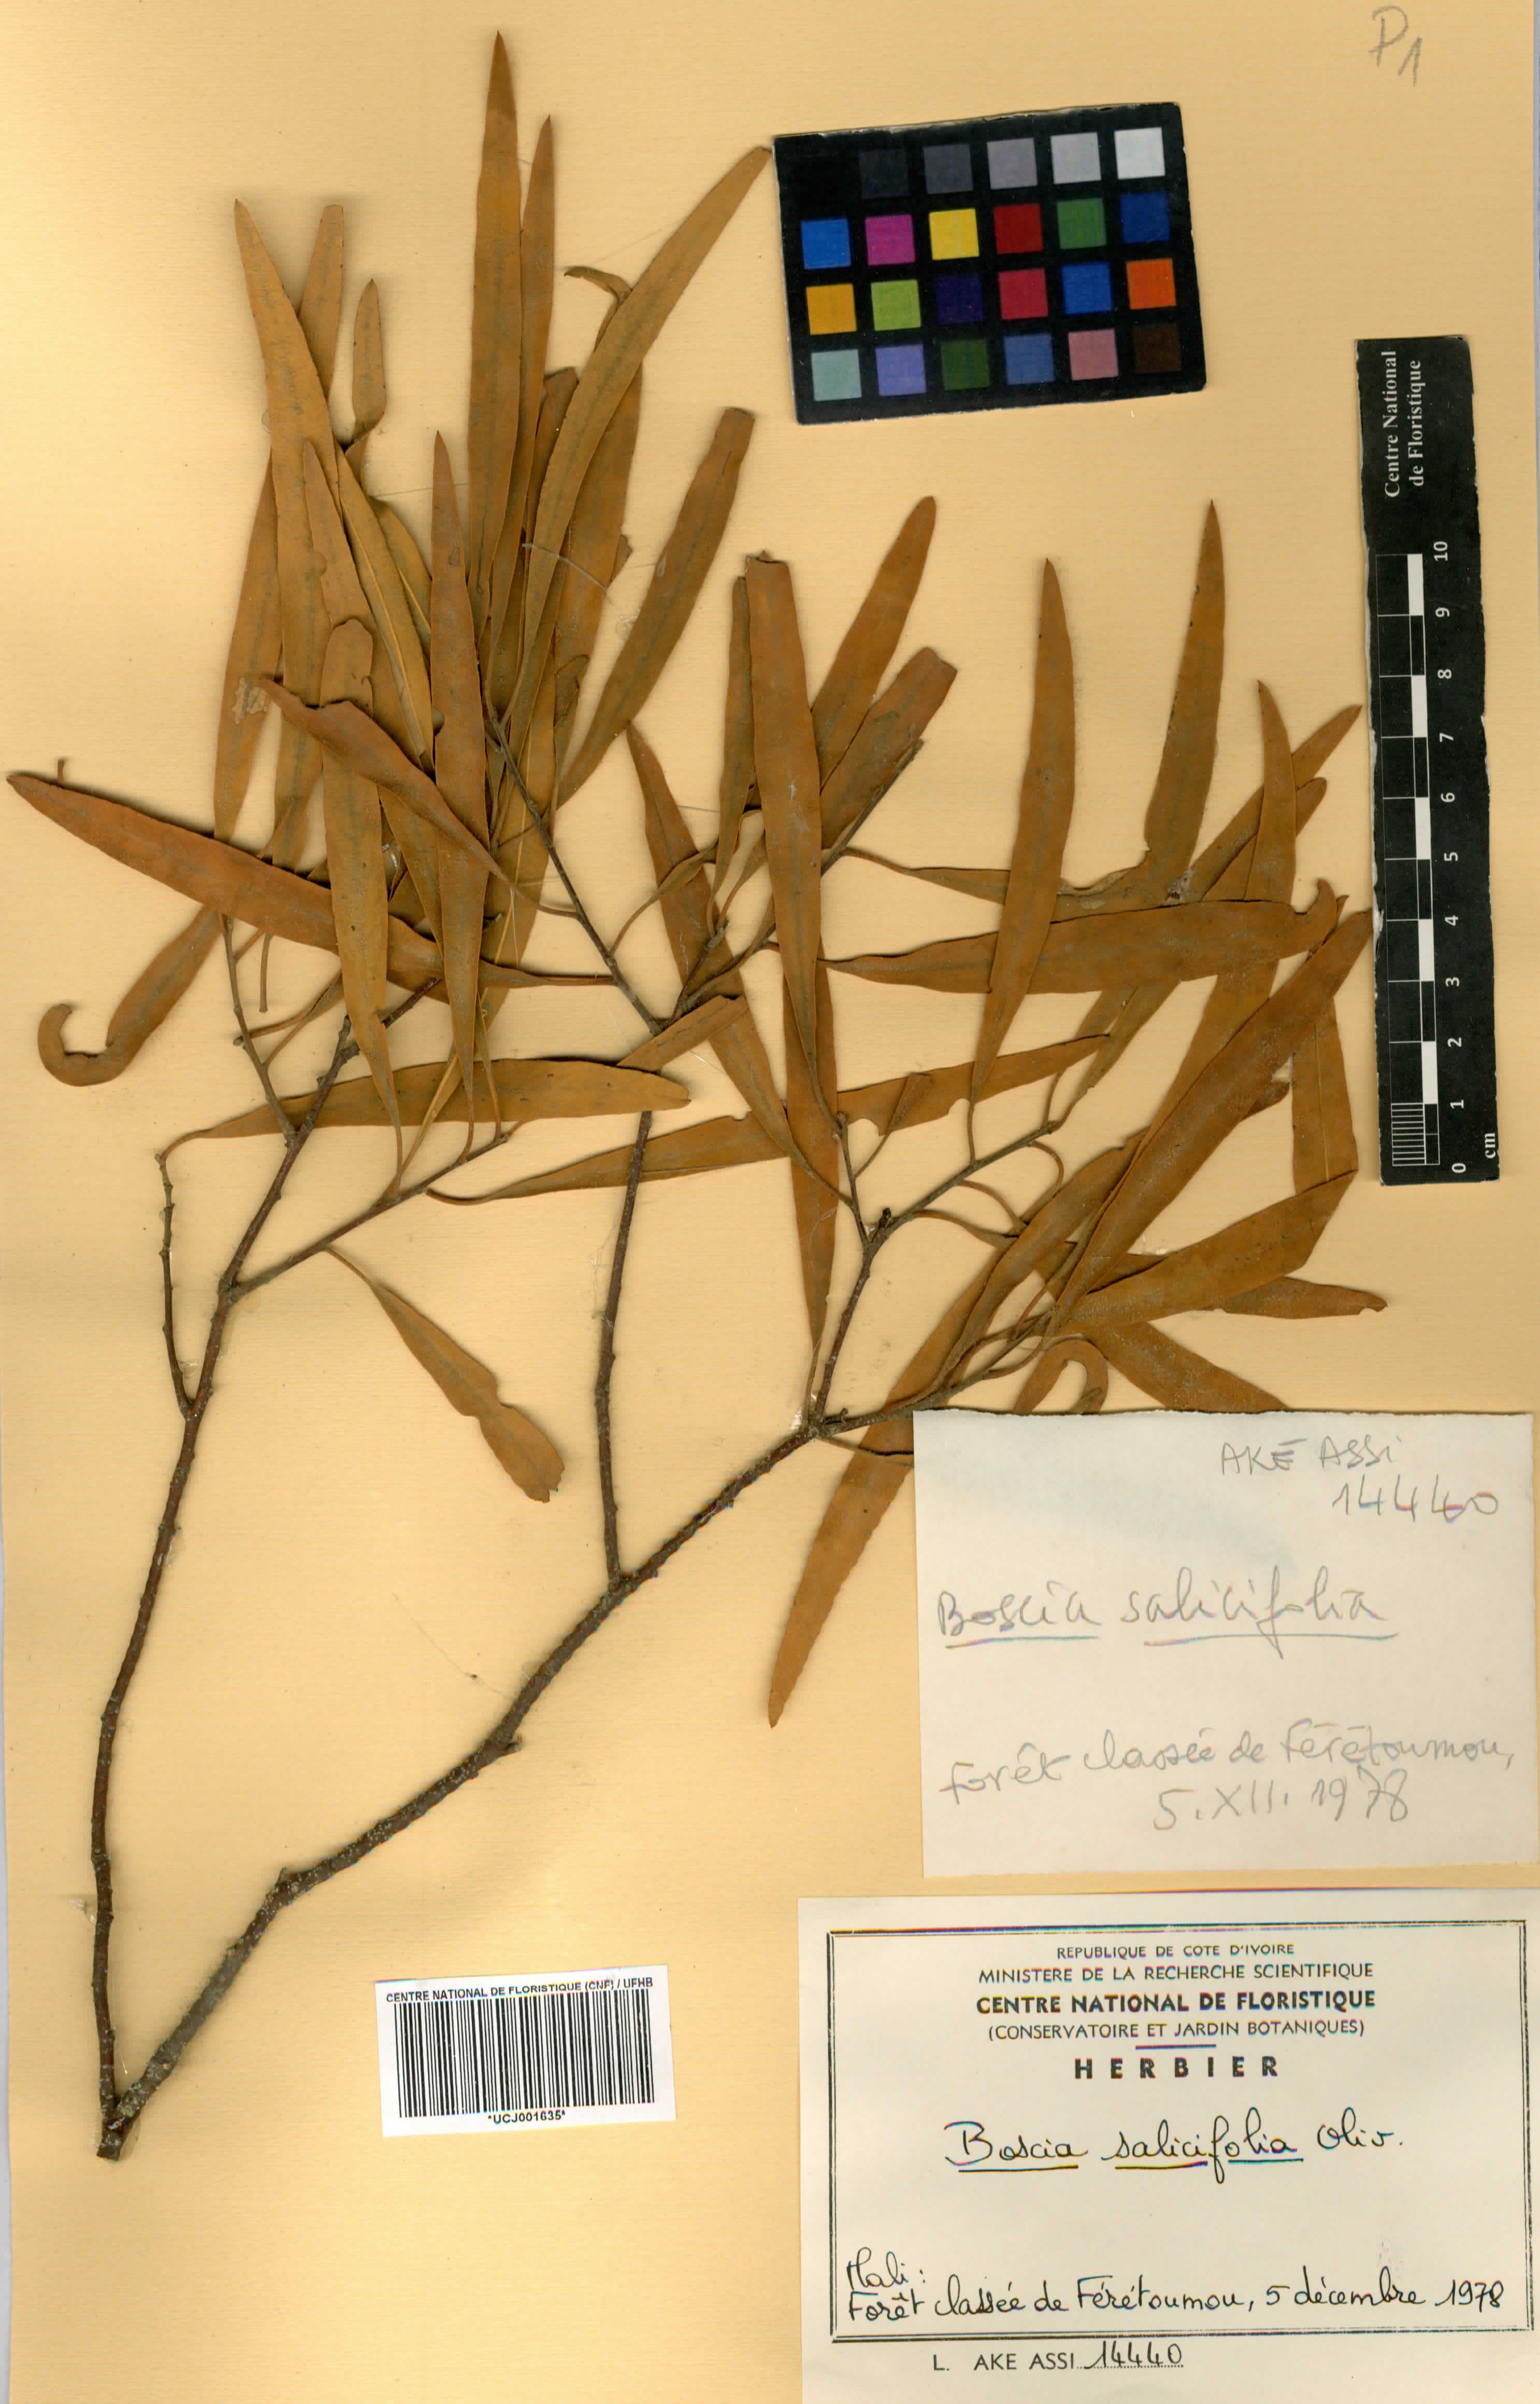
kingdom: Plantae
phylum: Tracheophyta
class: Magnoliopsida
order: Brassicales
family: Capparaceae
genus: Boscia
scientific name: Boscia salicifolia
